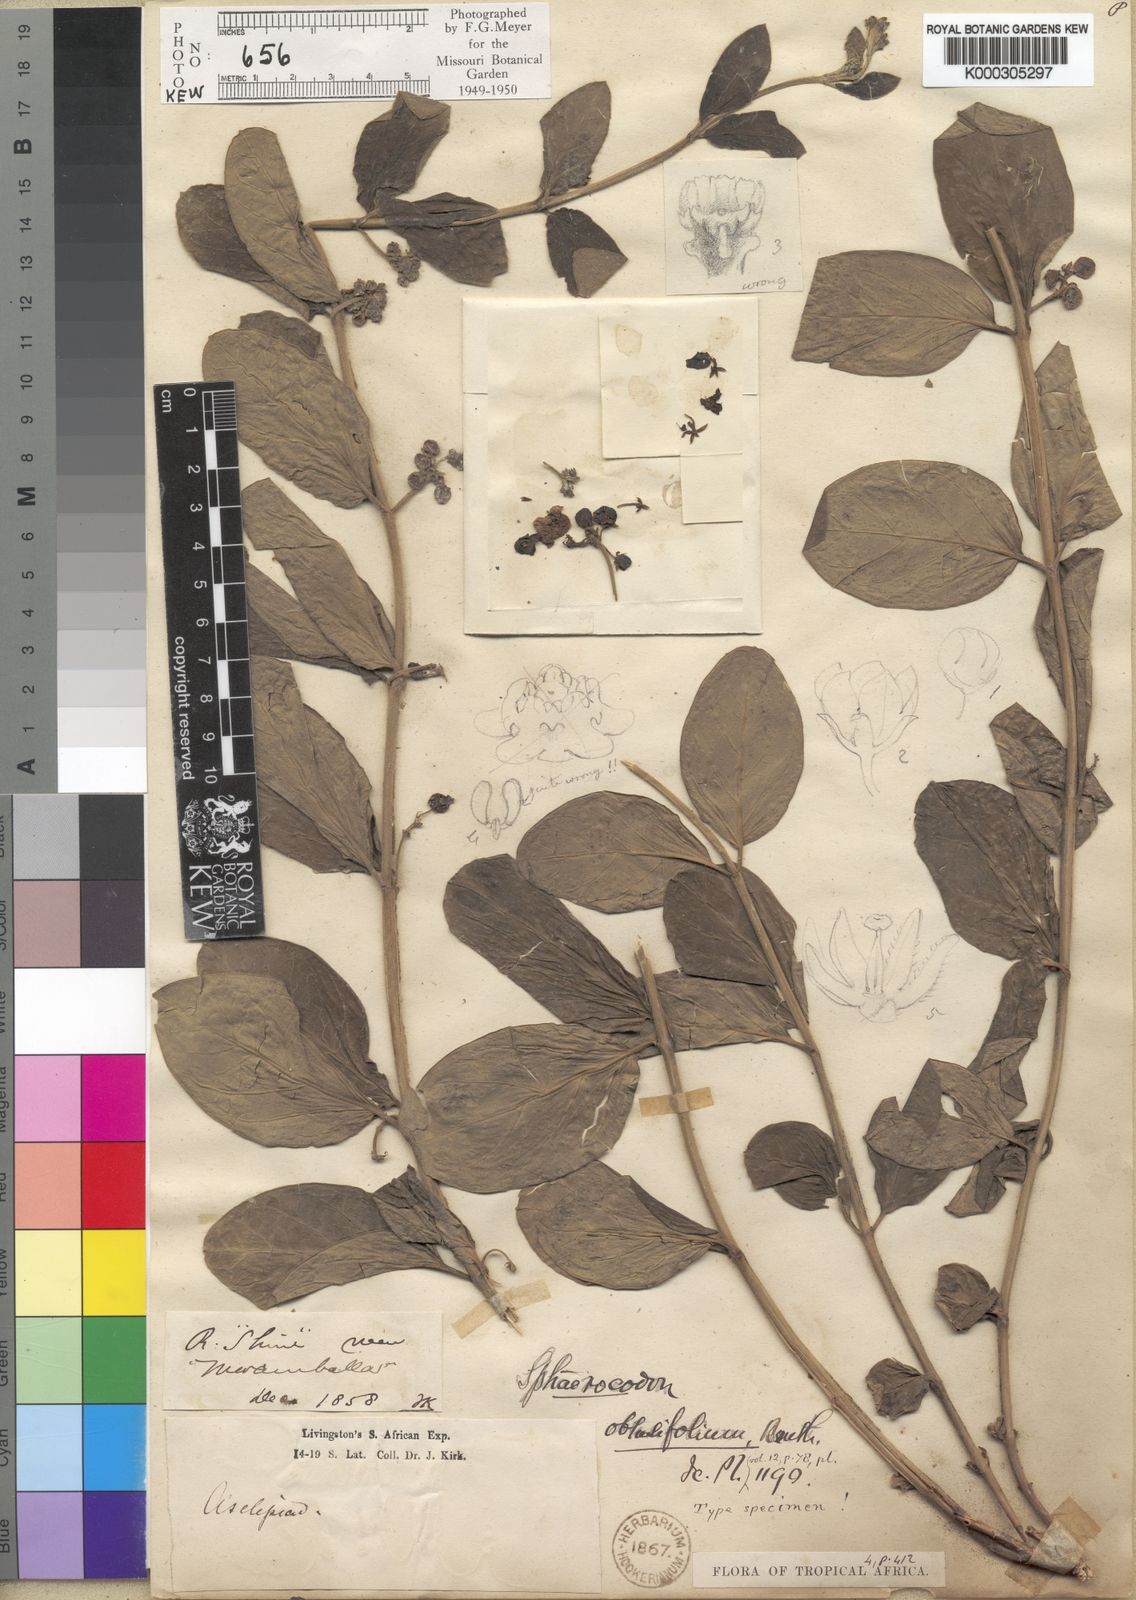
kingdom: Plantae
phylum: Tracheophyta
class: Magnoliopsida
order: Gentianales
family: Apocynaceae
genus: Vincetoxicum
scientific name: Vincetoxicum caffrum
